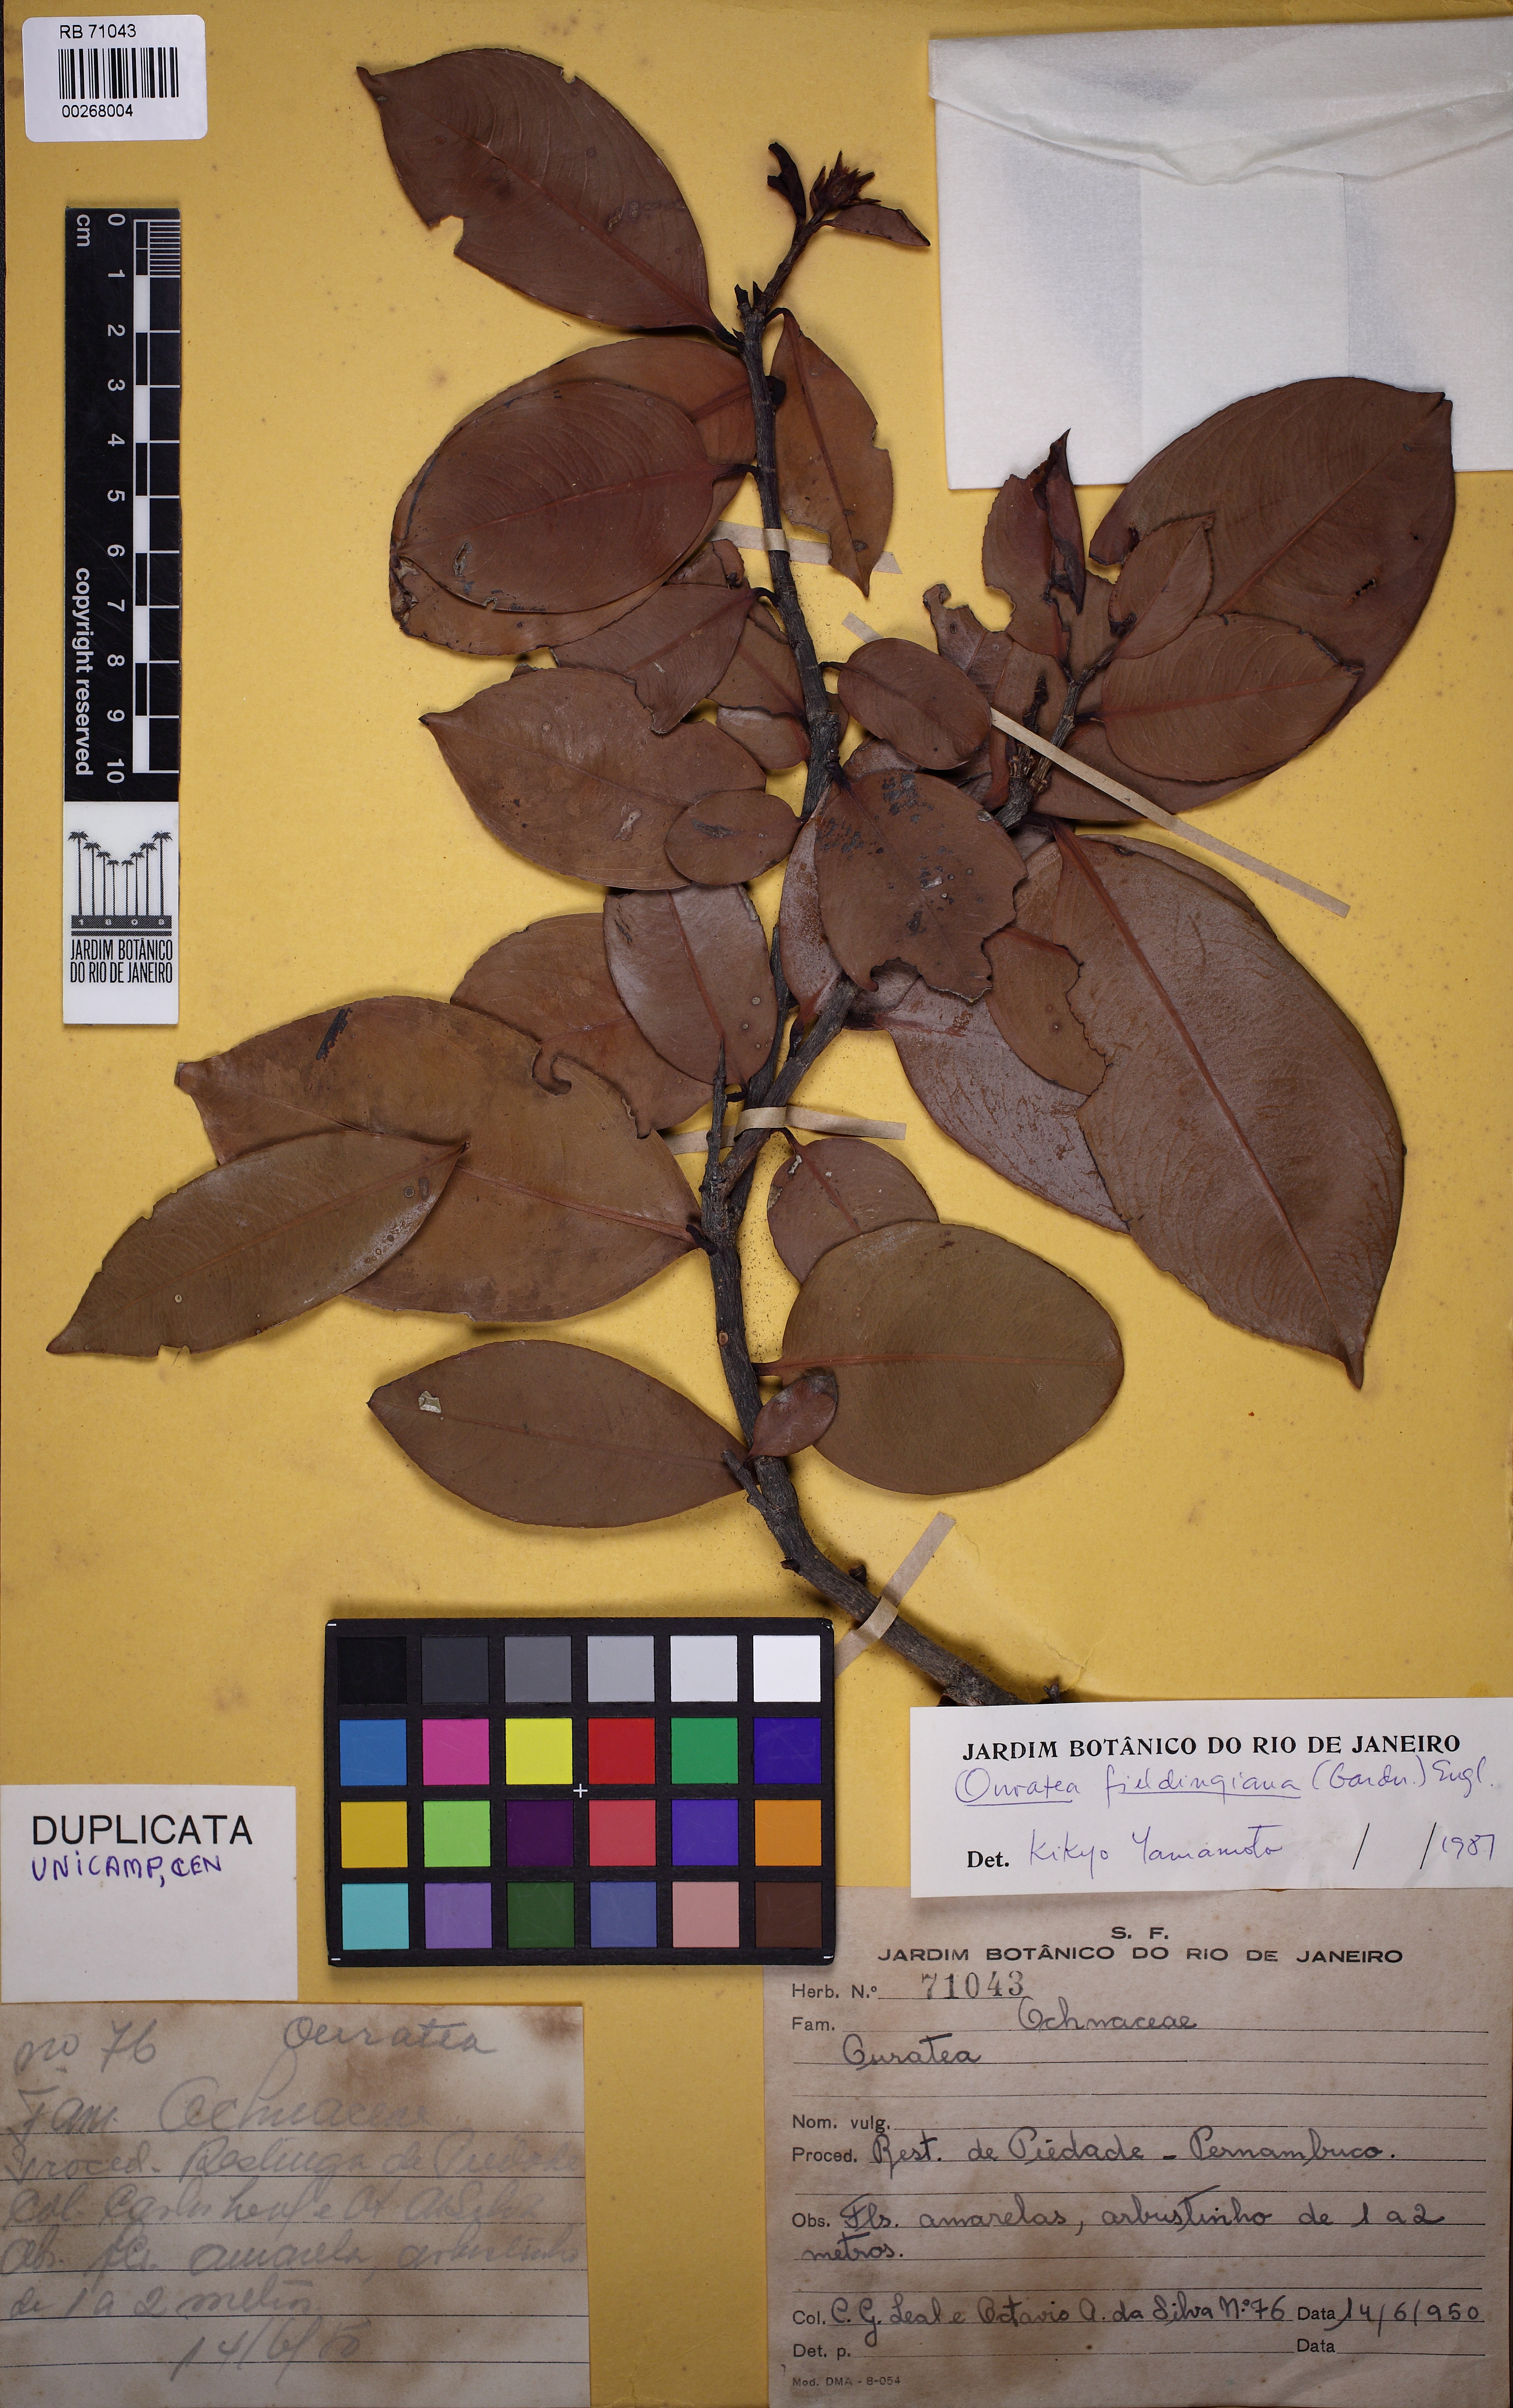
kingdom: Plantae
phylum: Tracheophyta
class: Magnoliopsida
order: Malpighiales
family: Ochnaceae
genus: Ouratea
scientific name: Ouratea fieldingiana
